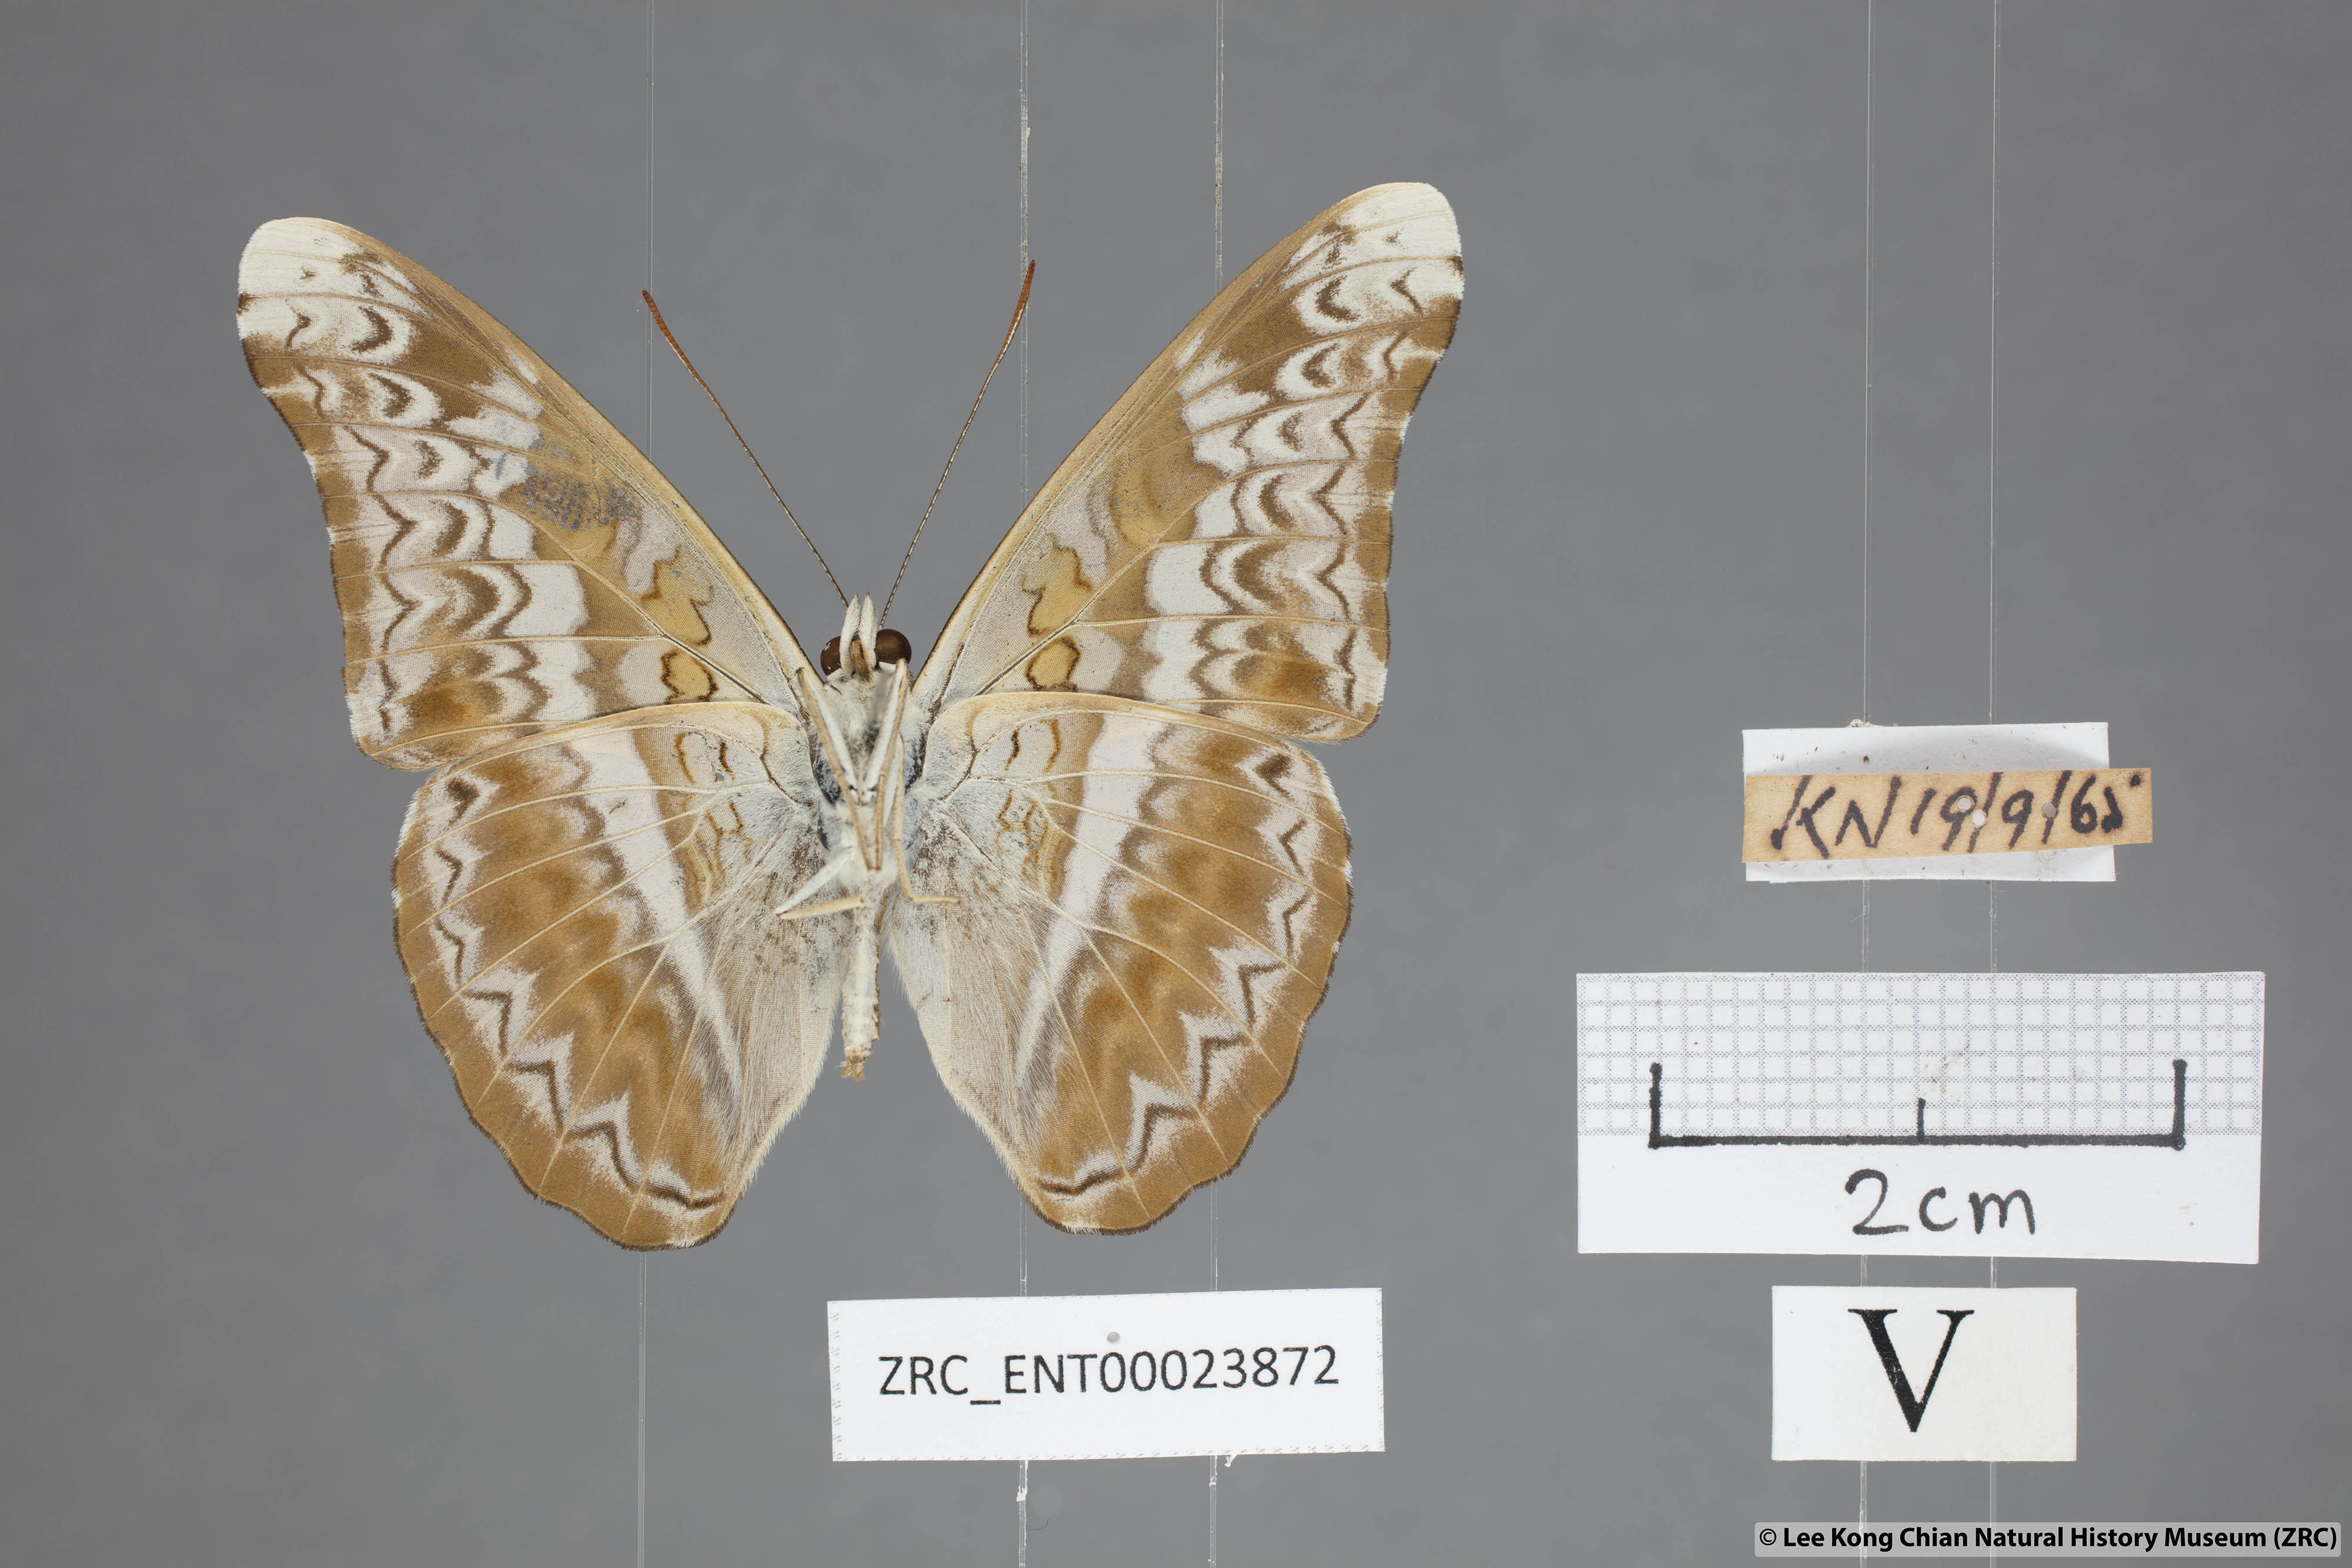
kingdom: Animalia
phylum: Arthropoda
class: Insecta
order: Lepidoptera
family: Nymphalidae
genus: Lebadea
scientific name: Lebadea martha
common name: Knight
